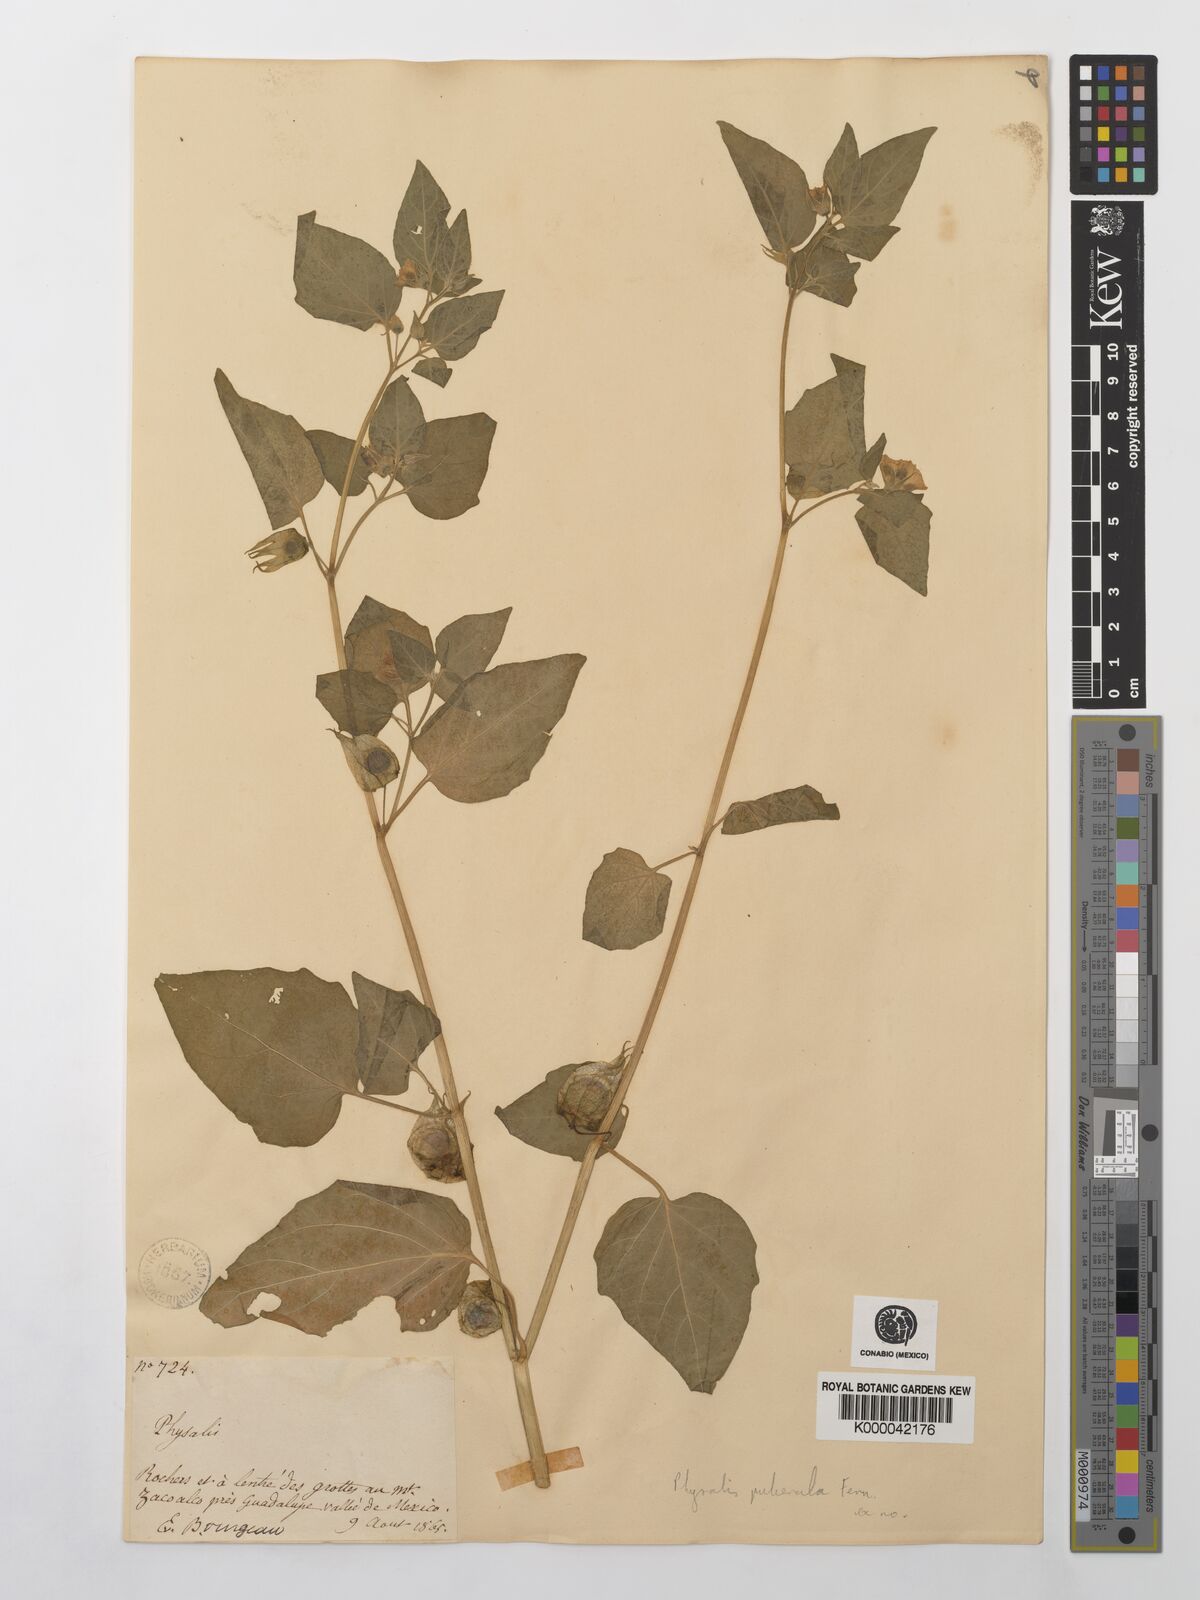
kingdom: Plantae
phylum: Tracheophyta
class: Magnoliopsida
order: Solanales
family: Solanaceae
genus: Physalis
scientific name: Physalis orizabae
